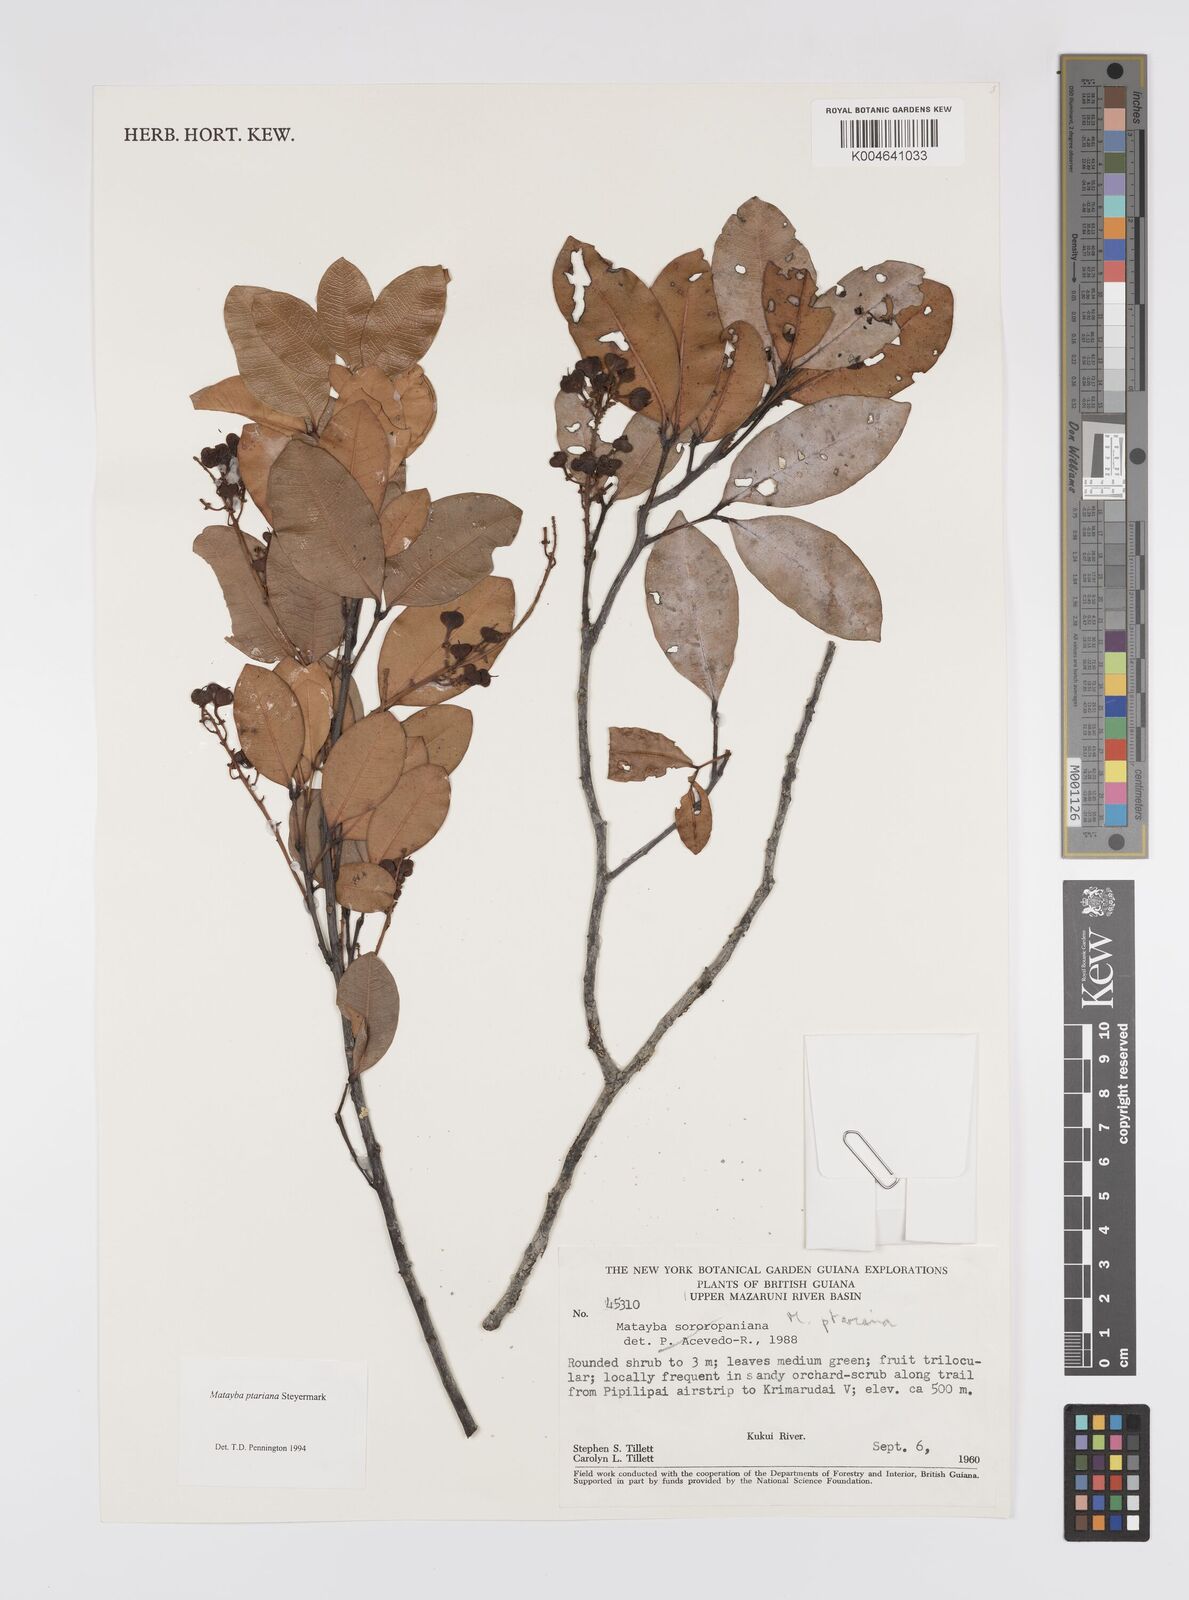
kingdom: Plantae
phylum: Tracheophyta
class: Magnoliopsida
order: Sapindales
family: Sapindaceae
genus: Matayba
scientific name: Matayba ptariana
